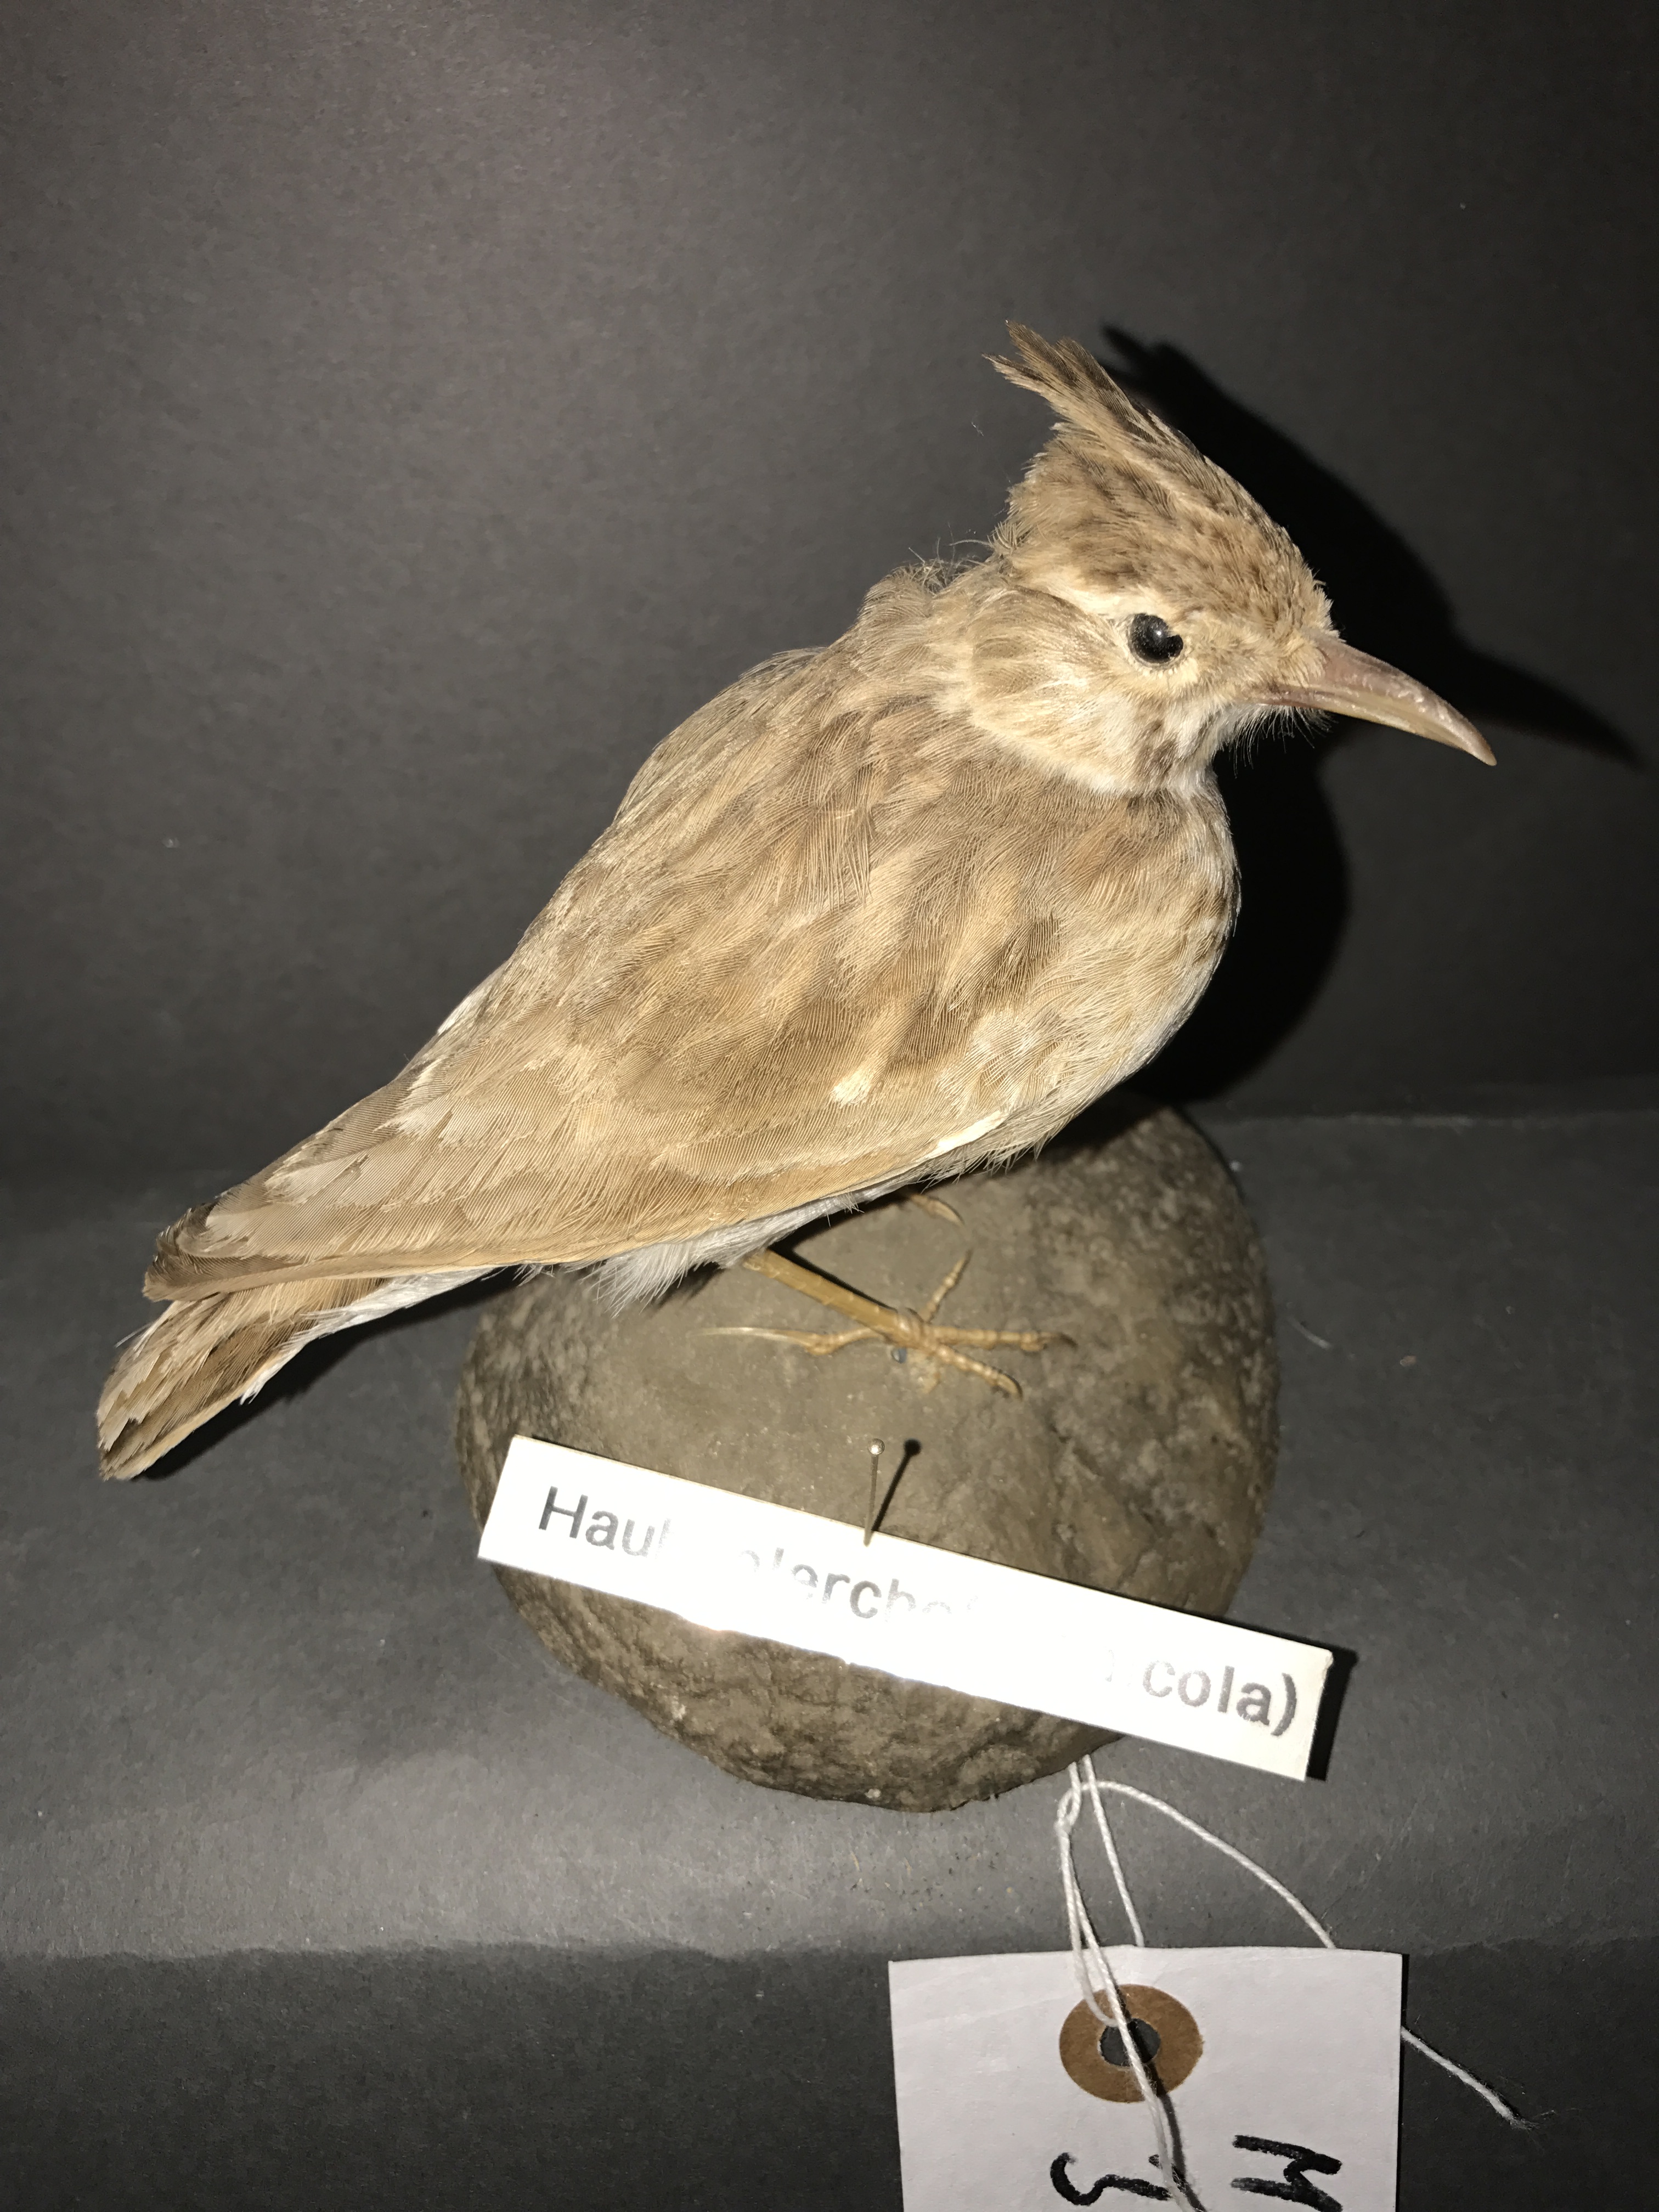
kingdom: Animalia
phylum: Chordata
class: Aves
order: Passeriformes
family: Alaudidae
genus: Galerida
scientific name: Galerida cristata
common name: Crested lark
